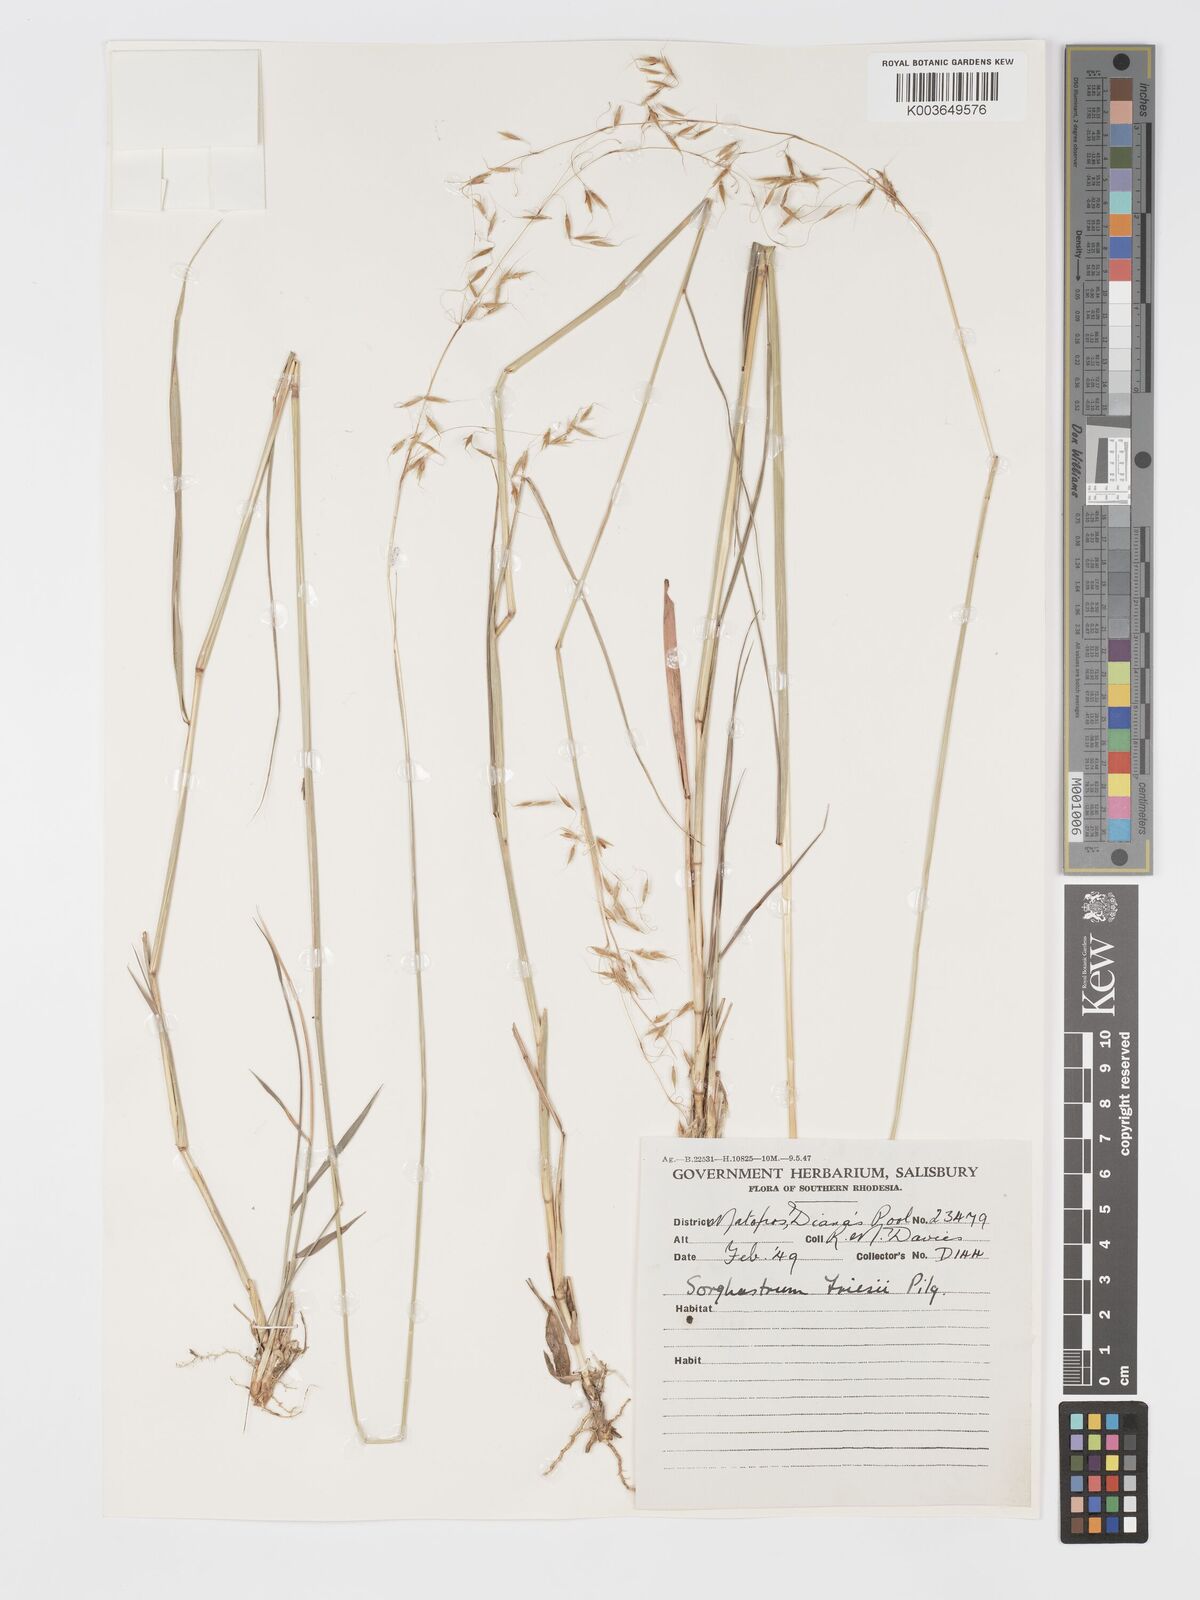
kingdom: Plantae
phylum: Tracheophyta
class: Liliopsida
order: Poales
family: Poaceae
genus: Sorghastrum
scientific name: Sorghastrum nudipes
